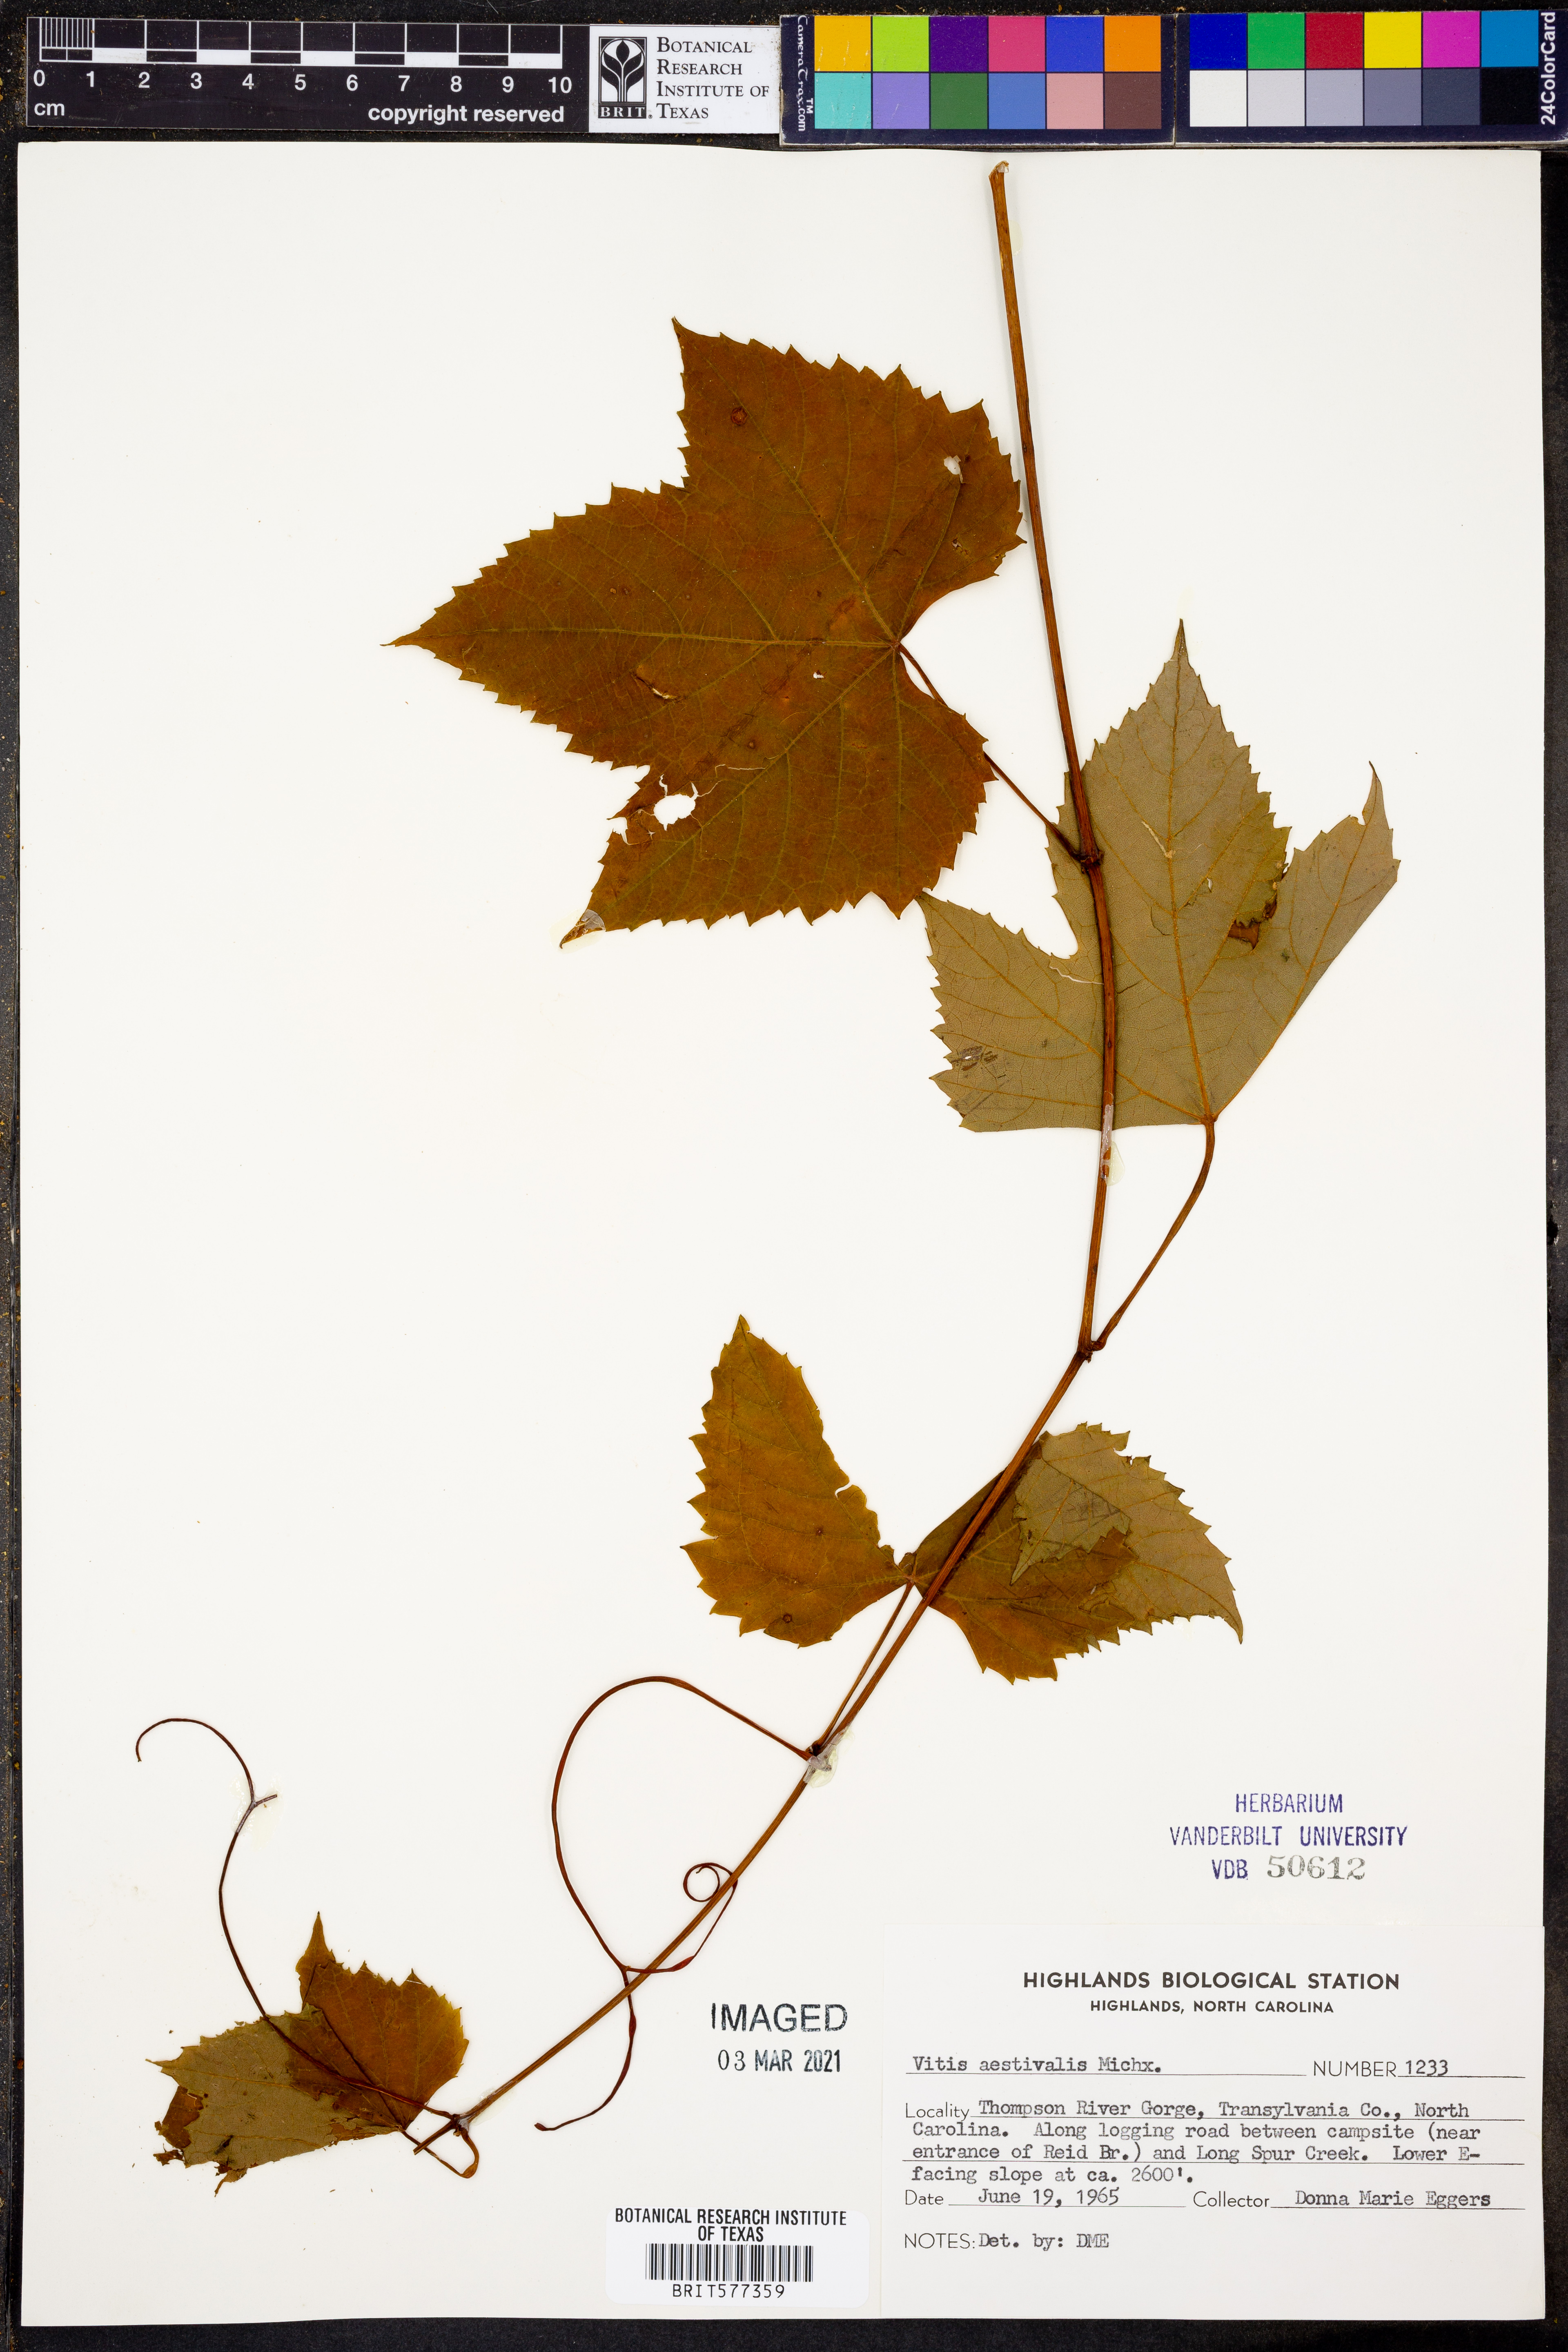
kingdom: Plantae
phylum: Tracheophyta
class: Magnoliopsida
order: Vitales
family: Vitaceae
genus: Vitis
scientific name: Vitis aestivalis
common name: Pigeon grape
